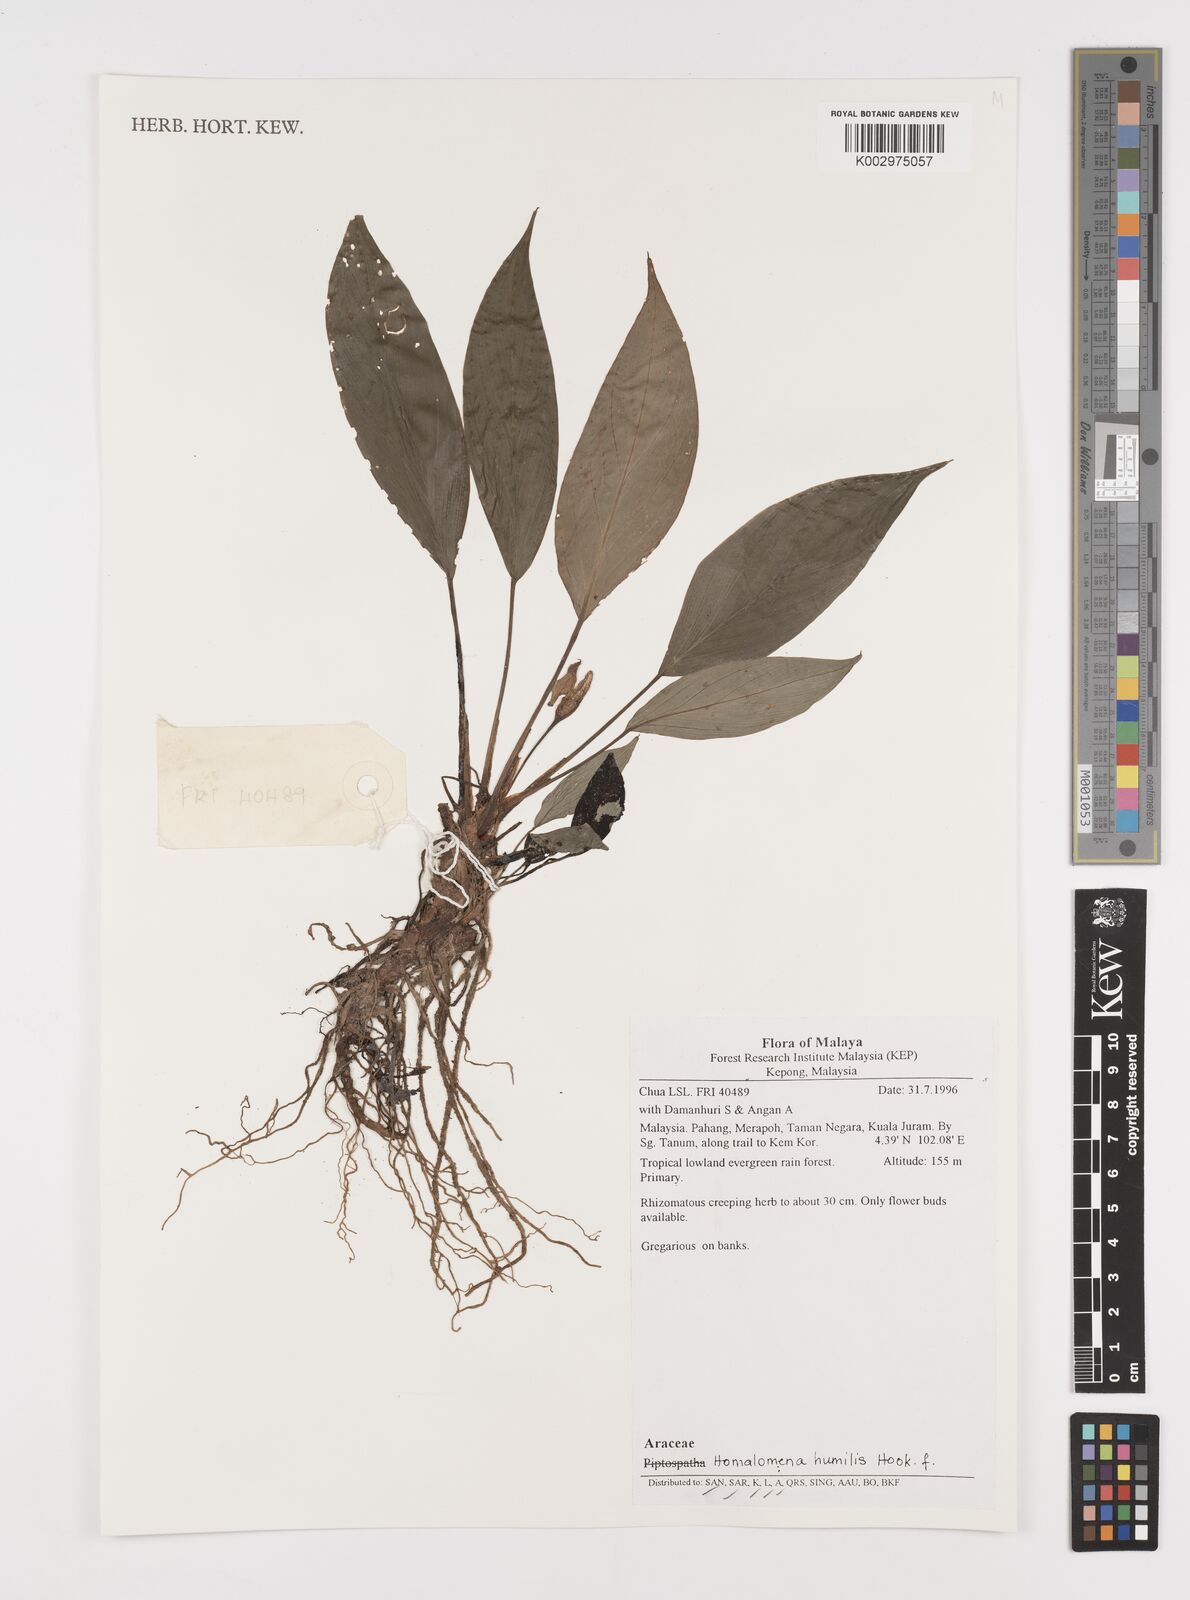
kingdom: Plantae
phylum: Tracheophyta
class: Liliopsida
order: Alismatales
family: Araceae
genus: Homalomena
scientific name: Homalomena humilis
